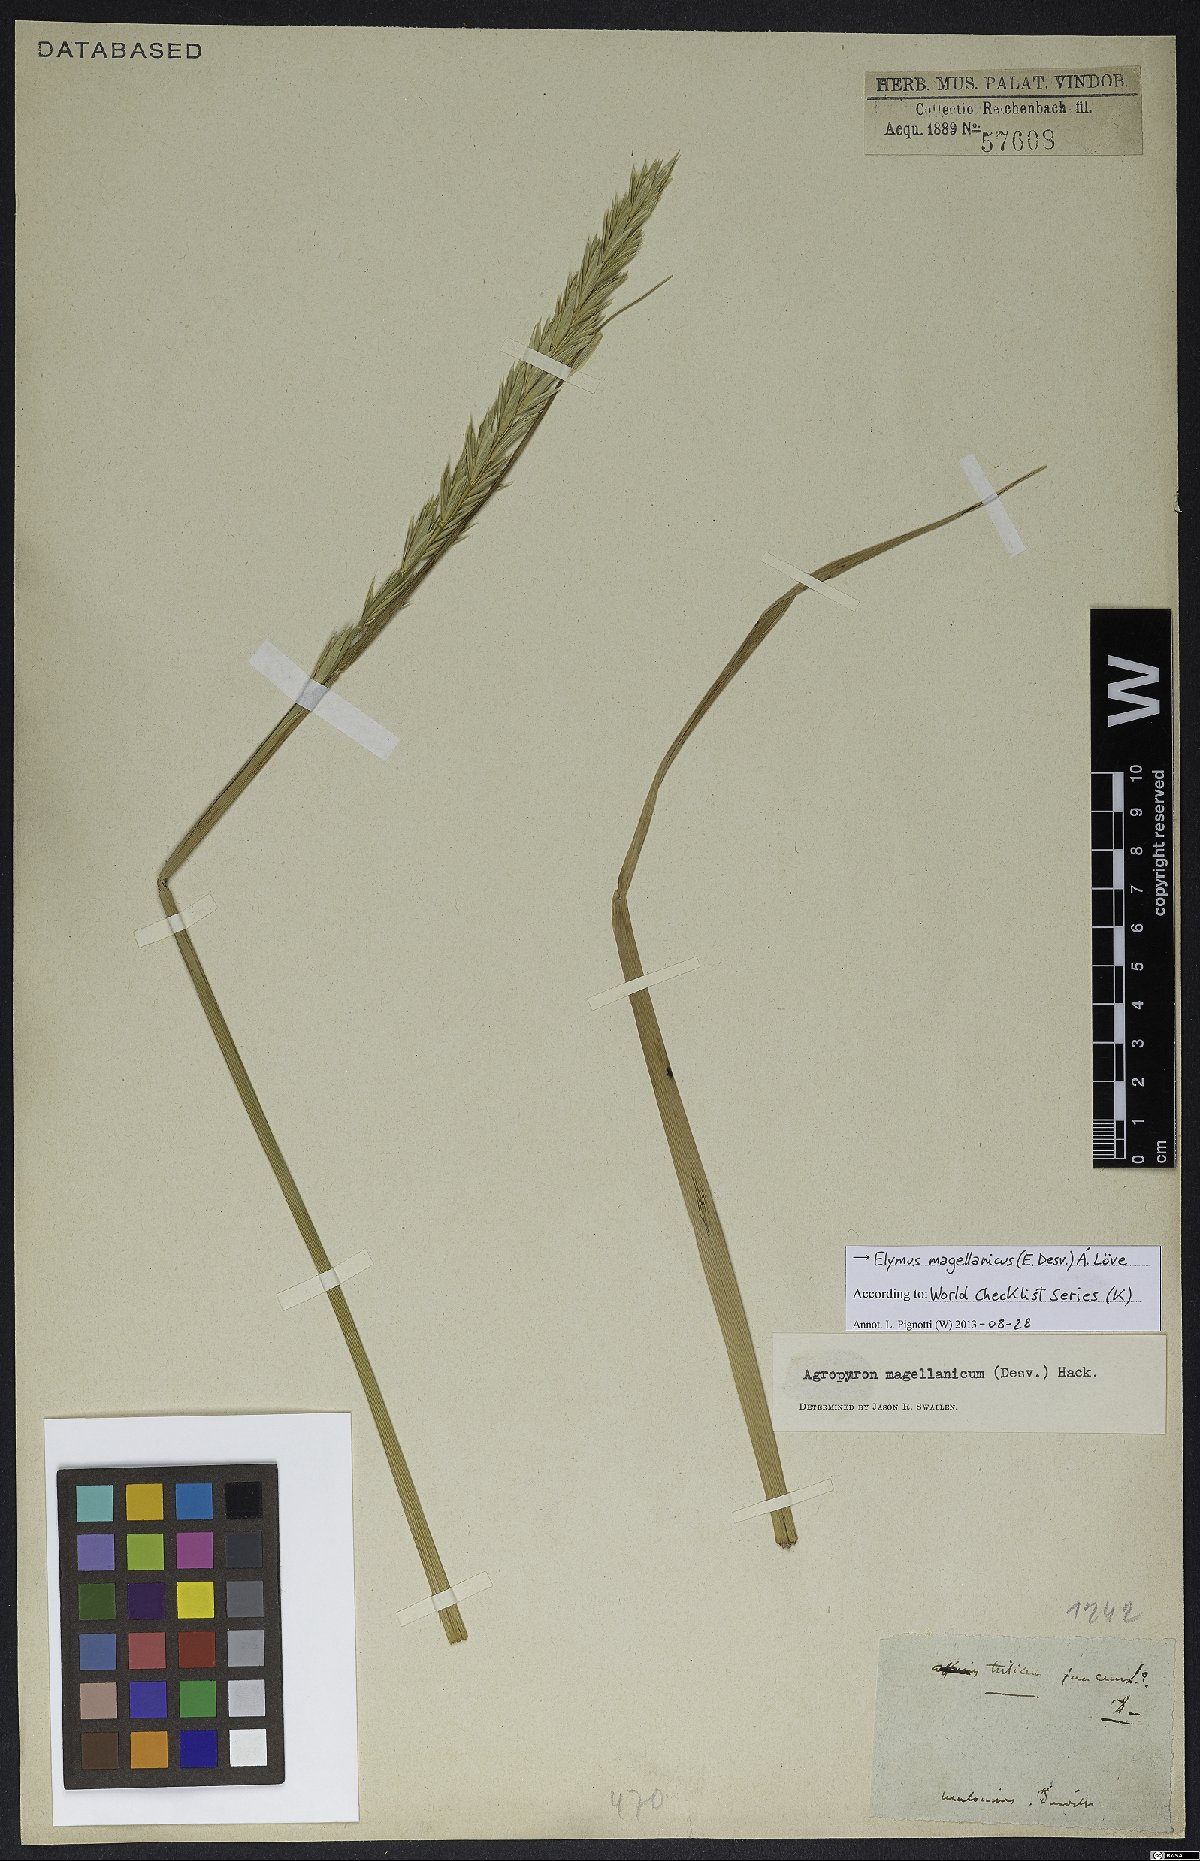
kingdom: Plantae
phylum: Tracheophyta
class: Liliopsida
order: Poales
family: Poaceae
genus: Elymus
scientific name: Elymus magellanicus
